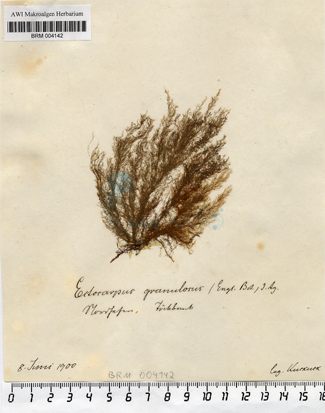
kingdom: Chromista
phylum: Ochrophyta
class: Phaeophyceae
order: Ectocarpales
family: Acinetosporaceae
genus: Hincksia
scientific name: Hincksia granulosa
